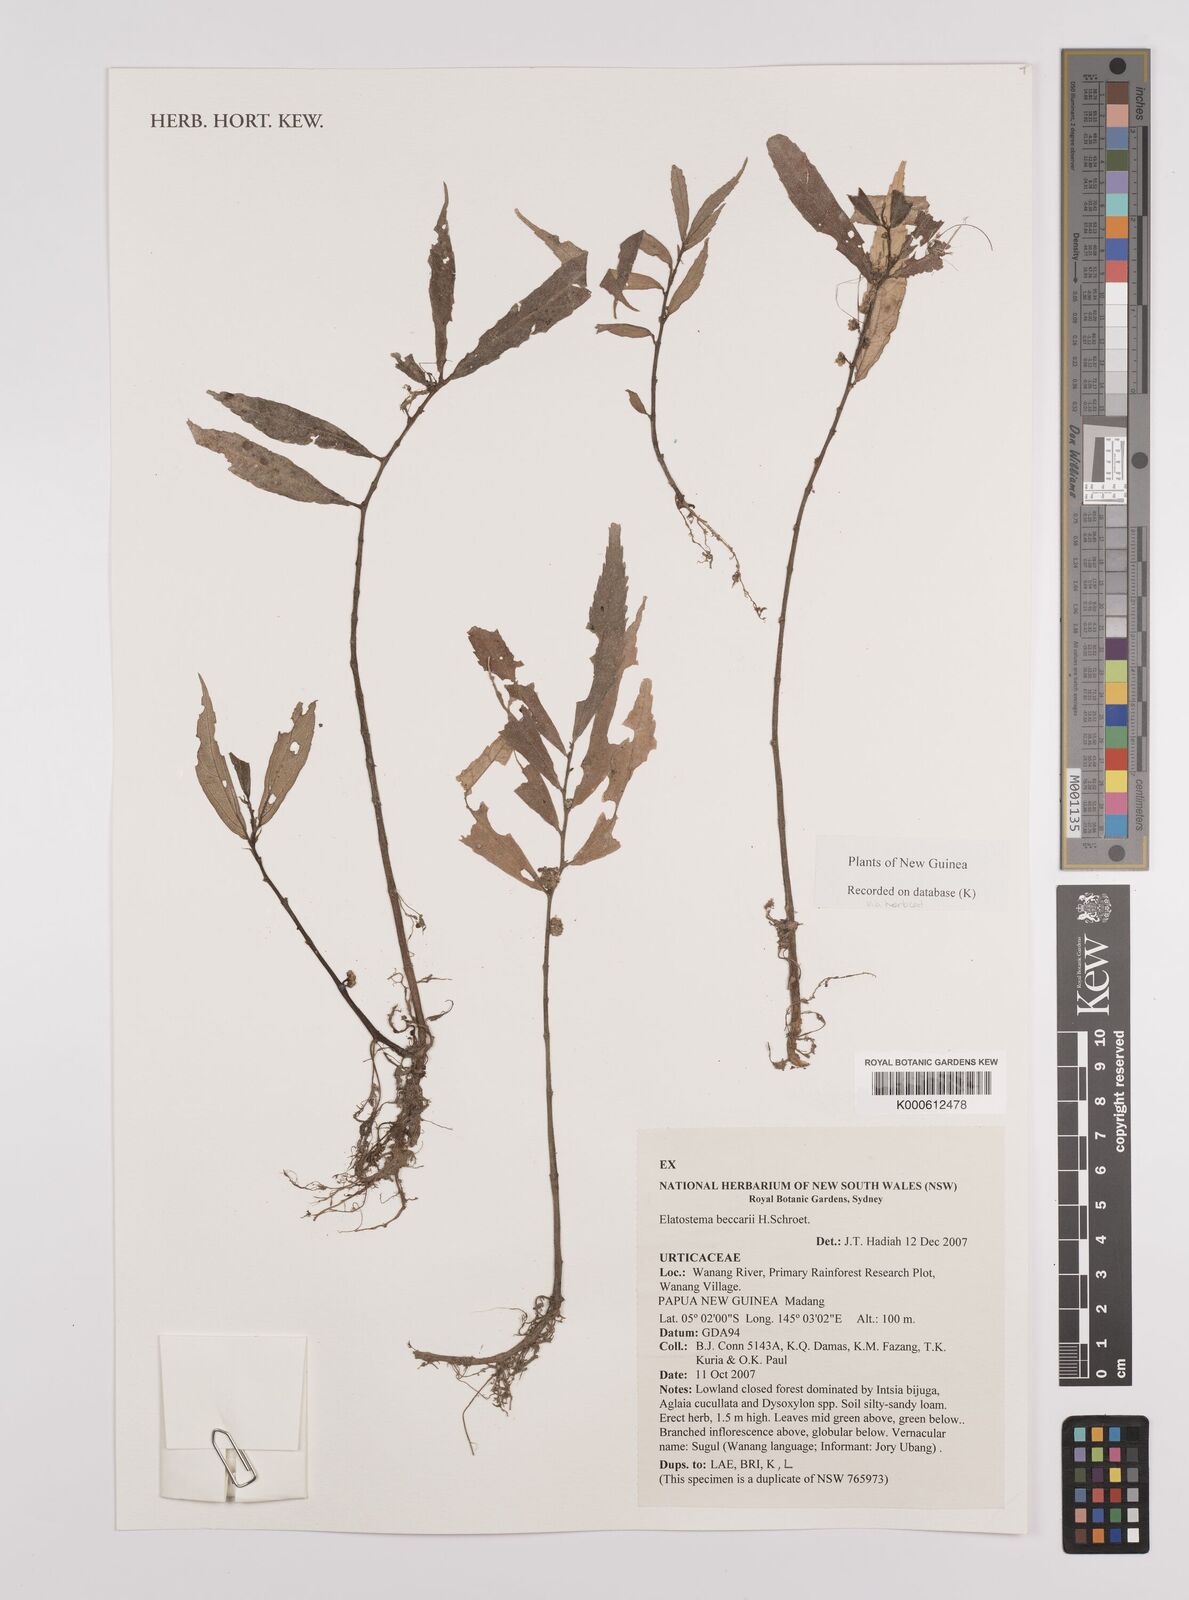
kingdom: Plantae
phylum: Tracheophyta
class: Magnoliopsida
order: Rosales
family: Urticaceae
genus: Elatostema
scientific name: Elatostema beccarii
